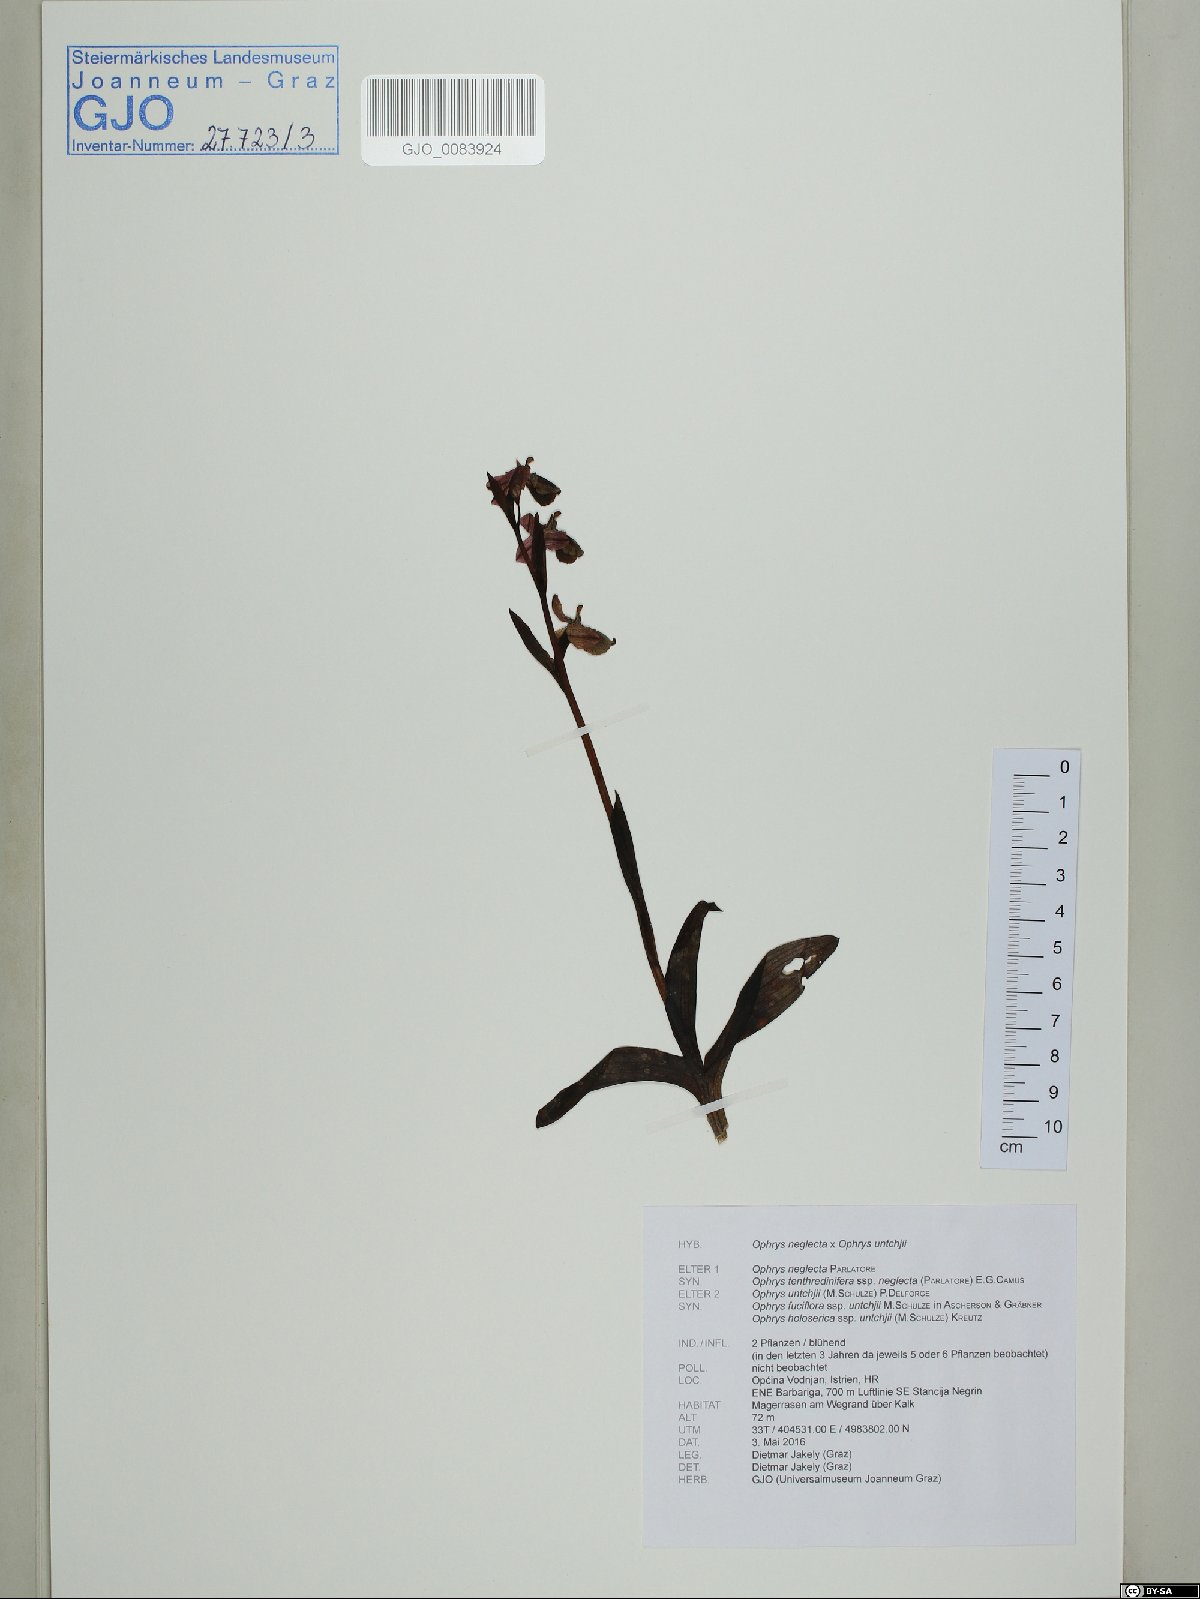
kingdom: Plantae
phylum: Tracheophyta
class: Liliopsida
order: Asparagales
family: Orchidaceae
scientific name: Orchidaceae
